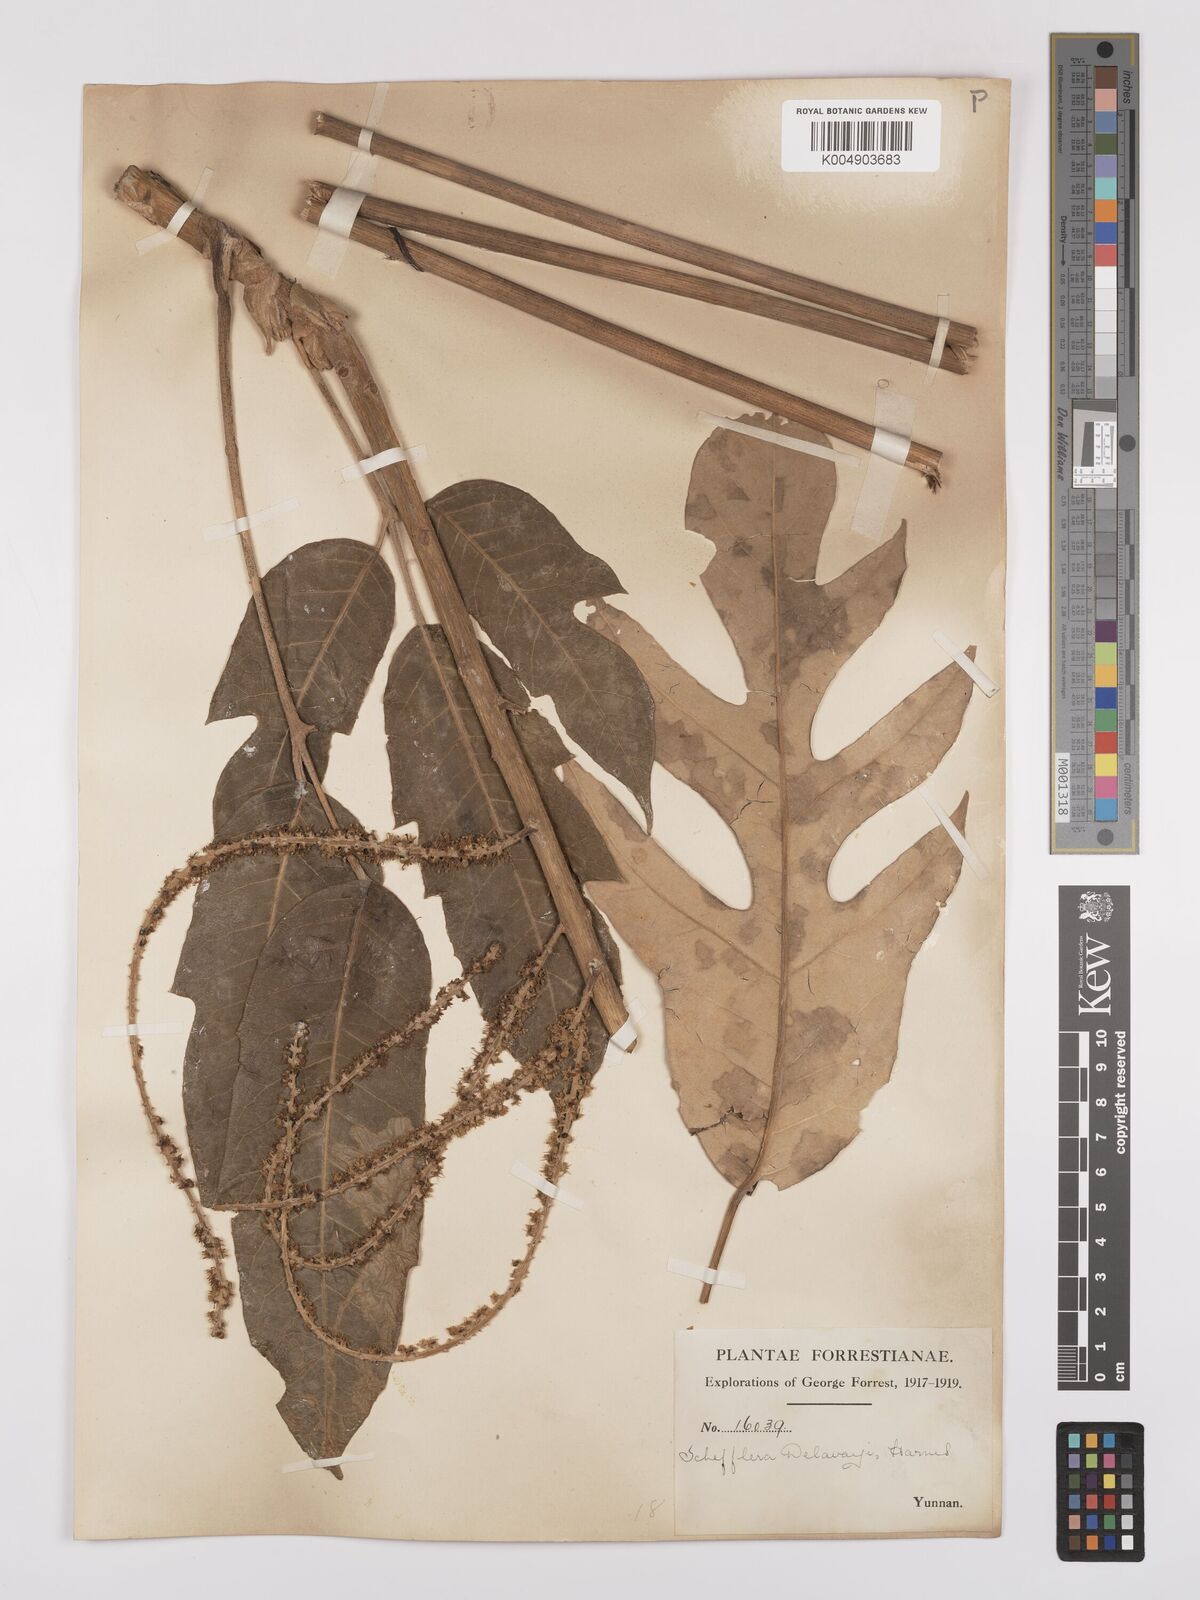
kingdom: Plantae
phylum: Tracheophyta
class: Magnoliopsida
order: Apiales
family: Araliaceae
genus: Heptapleurum
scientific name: Heptapleurum delavayi
